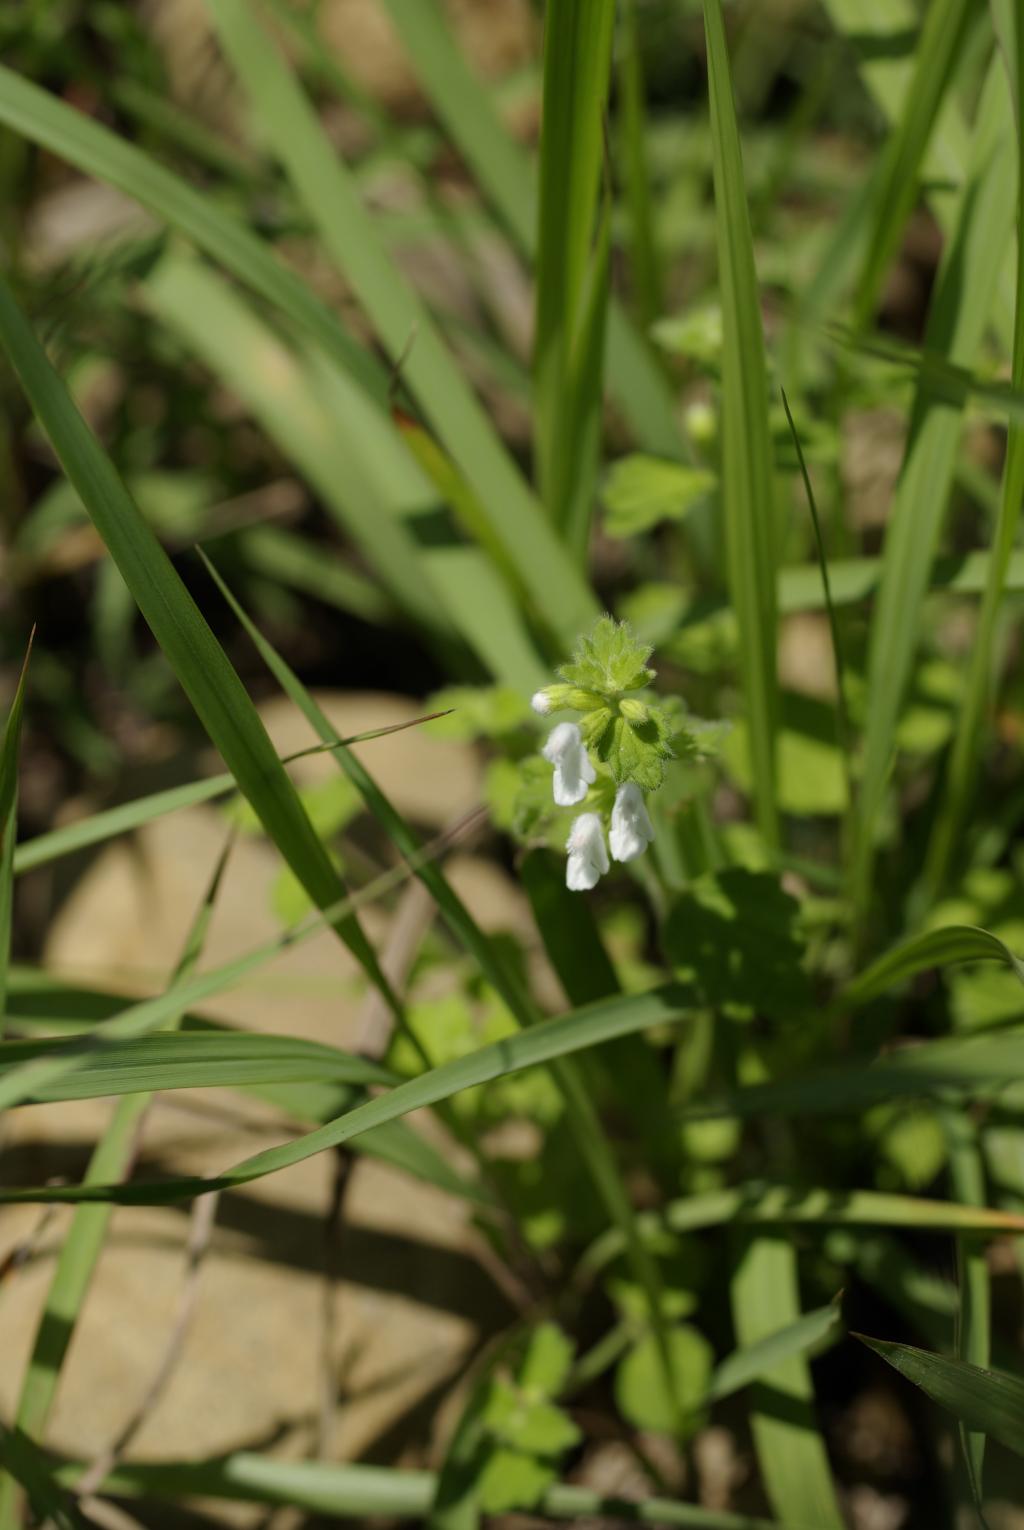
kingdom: Plantae
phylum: Tracheophyta
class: Magnoliopsida
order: Lamiales
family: Lamiaceae
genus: Leucas
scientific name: Leucas chinensis
